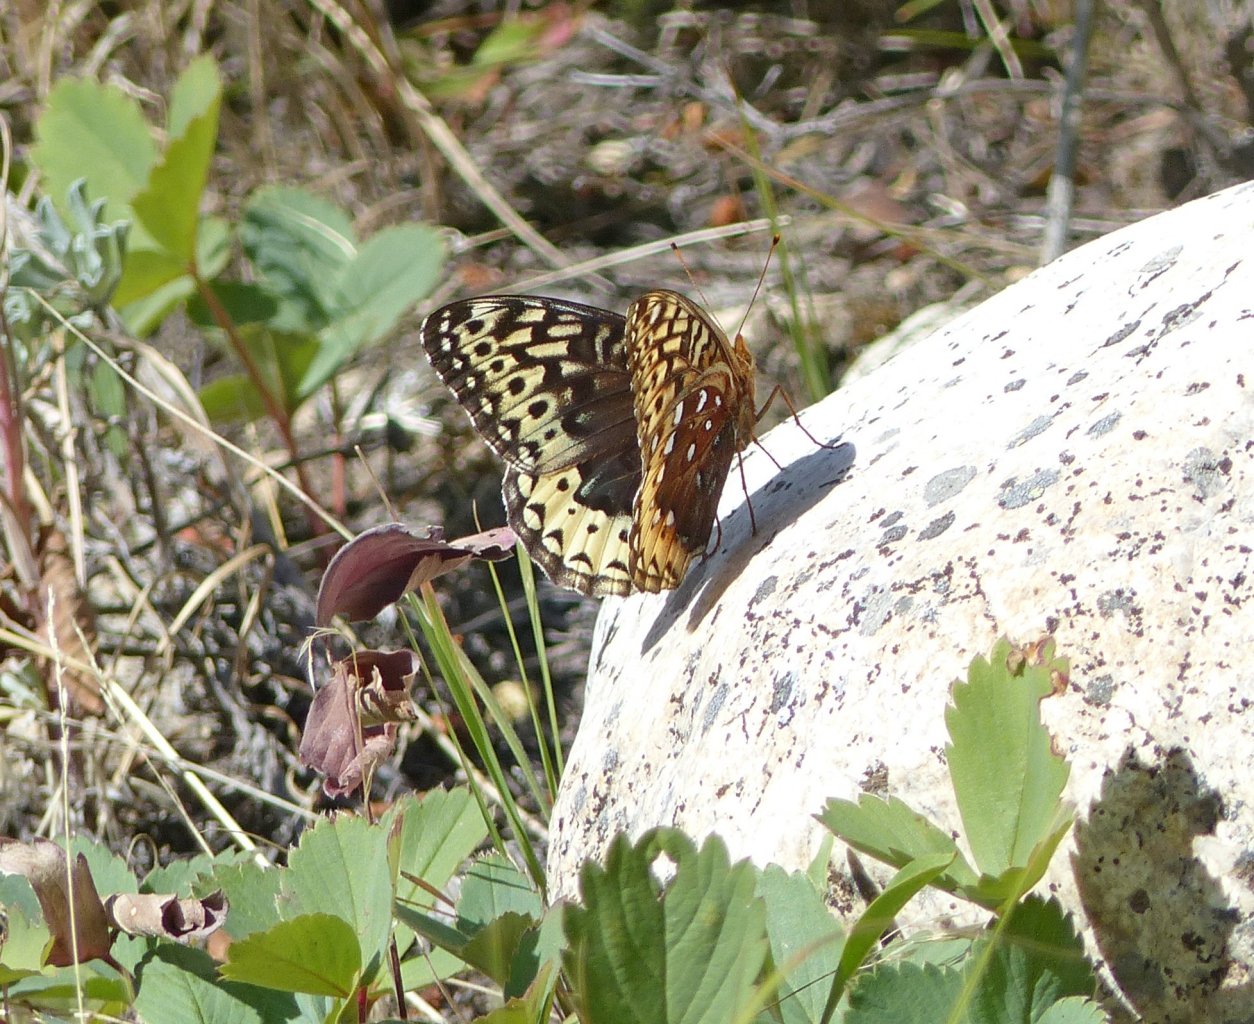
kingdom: Animalia
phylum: Arthropoda
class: Insecta
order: Lepidoptera
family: Nymphalidae
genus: Speyeria
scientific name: Speyeria cybele
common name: Great Spangled Fritillary
